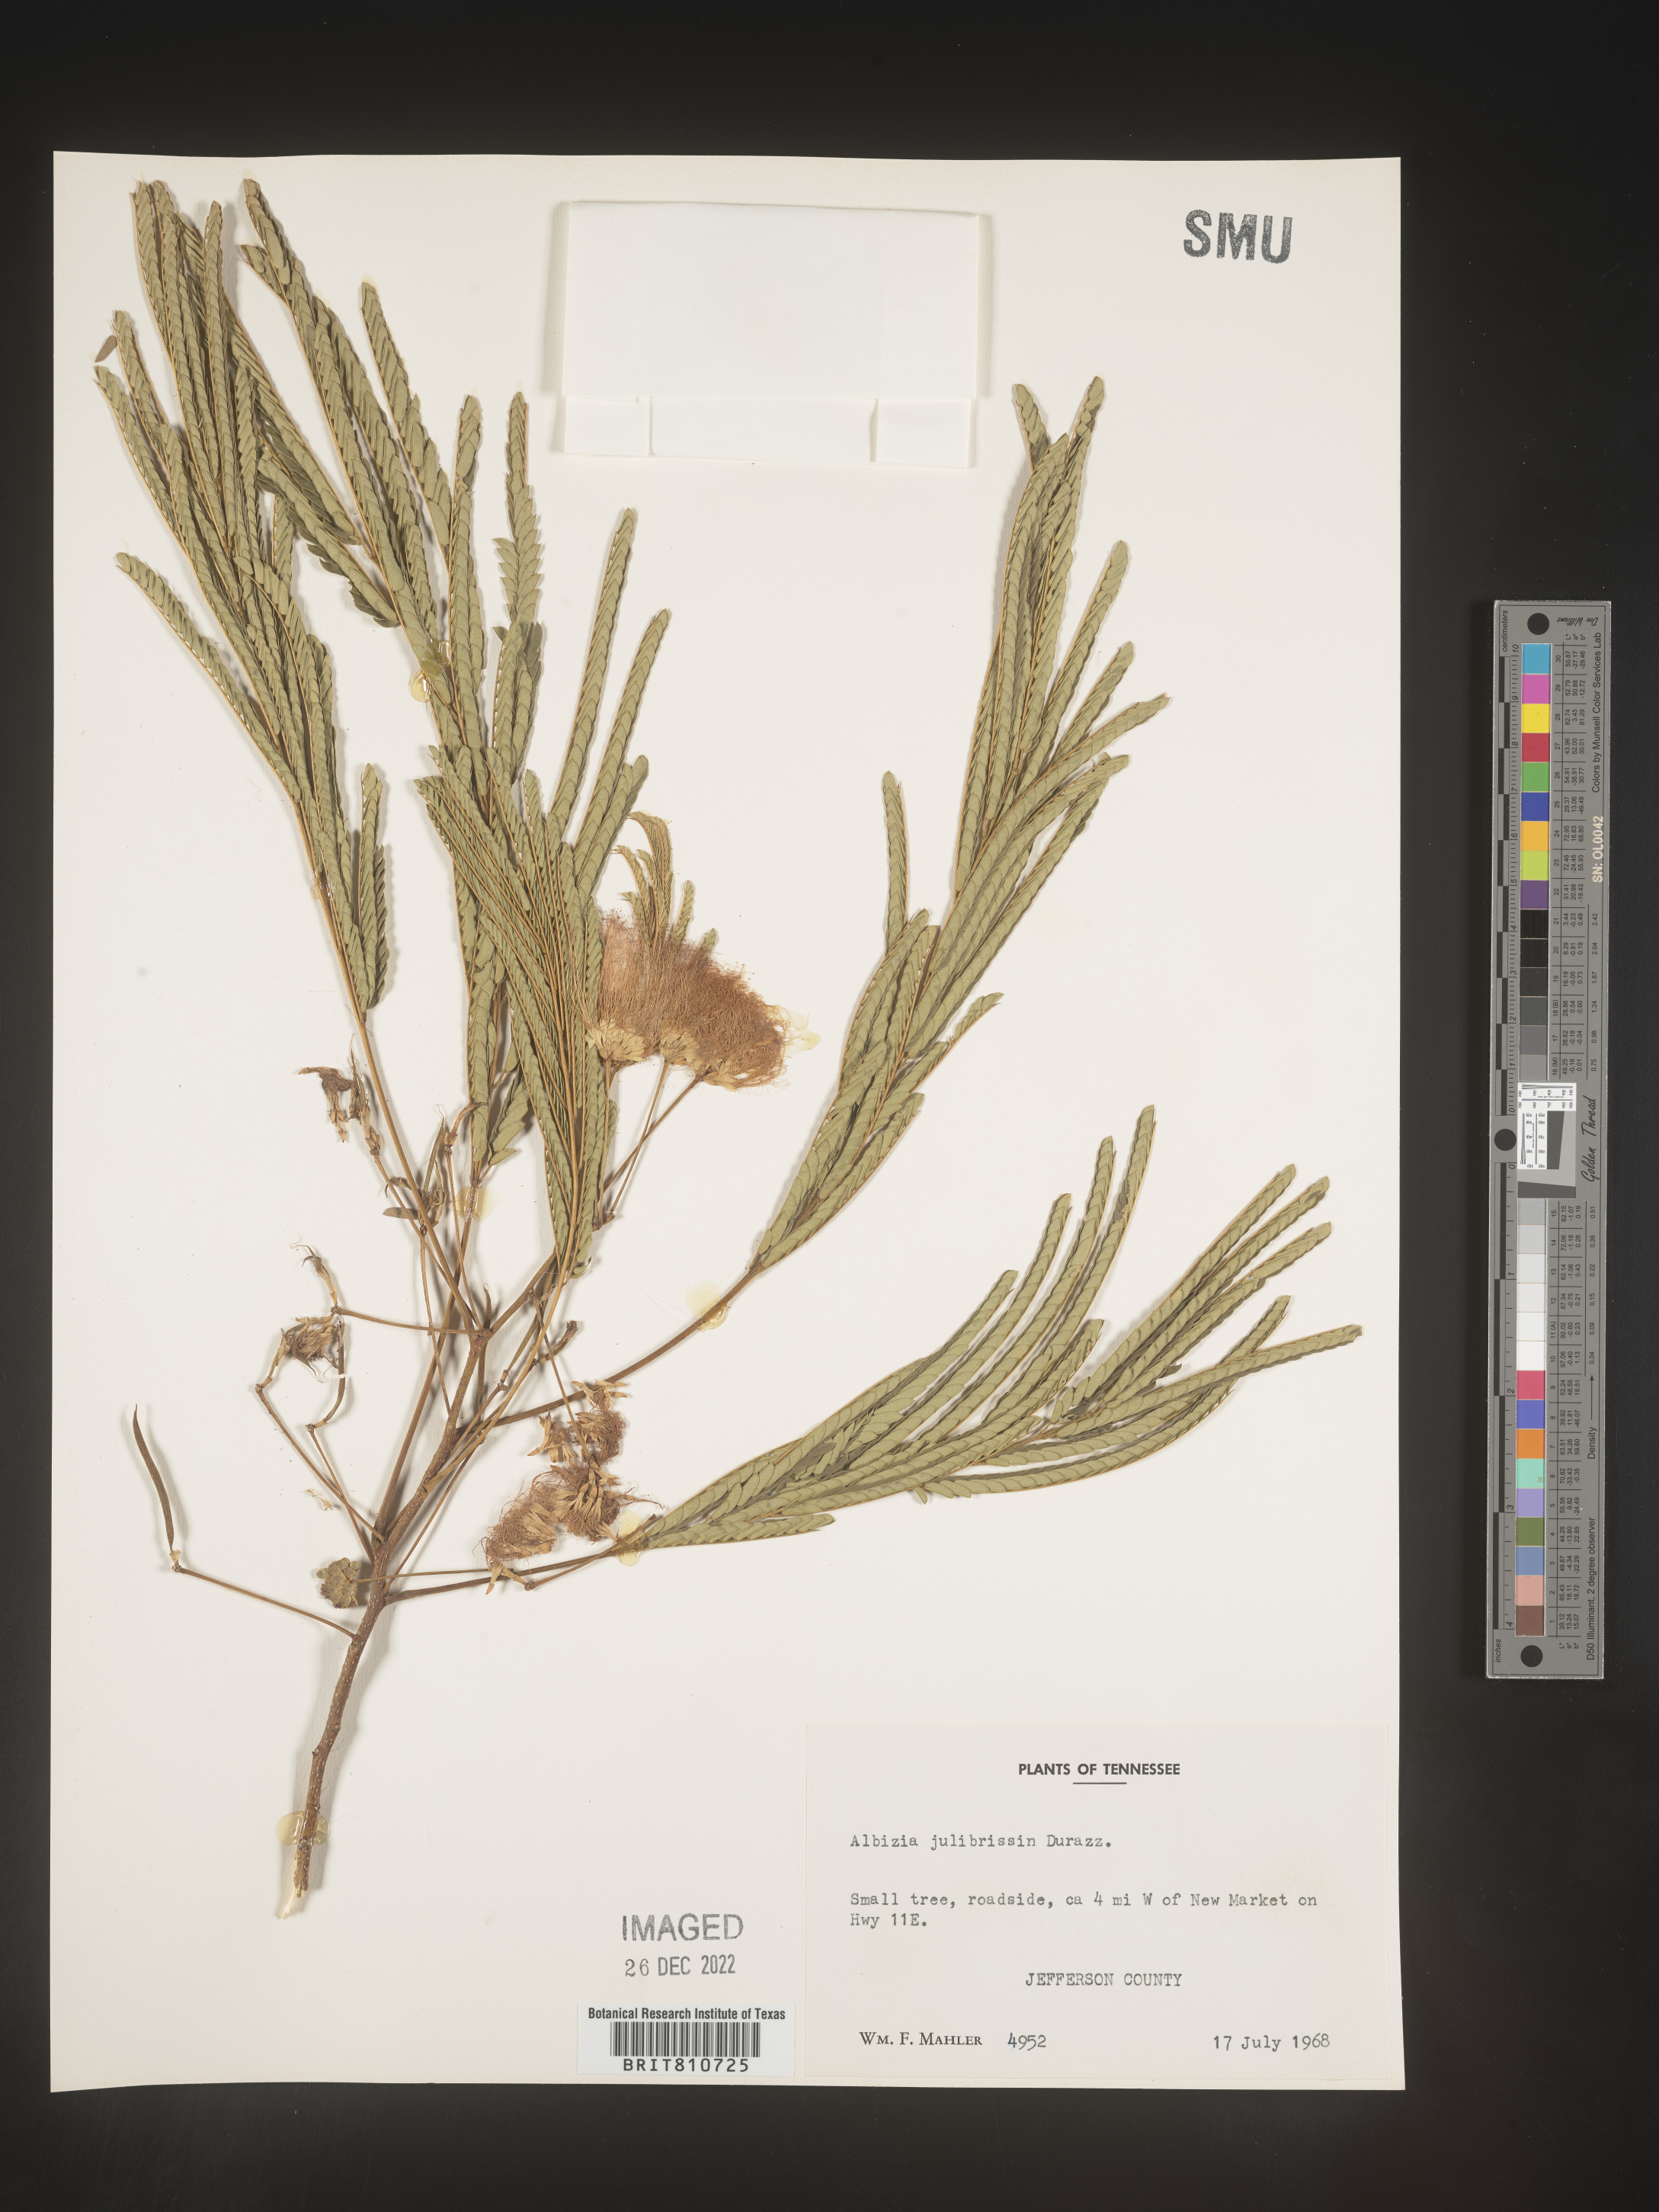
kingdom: Plantae
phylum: Tracheophyta
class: Magnoliopsida
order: Fabales
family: Fabaceae
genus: Albizia
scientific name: Albizia
